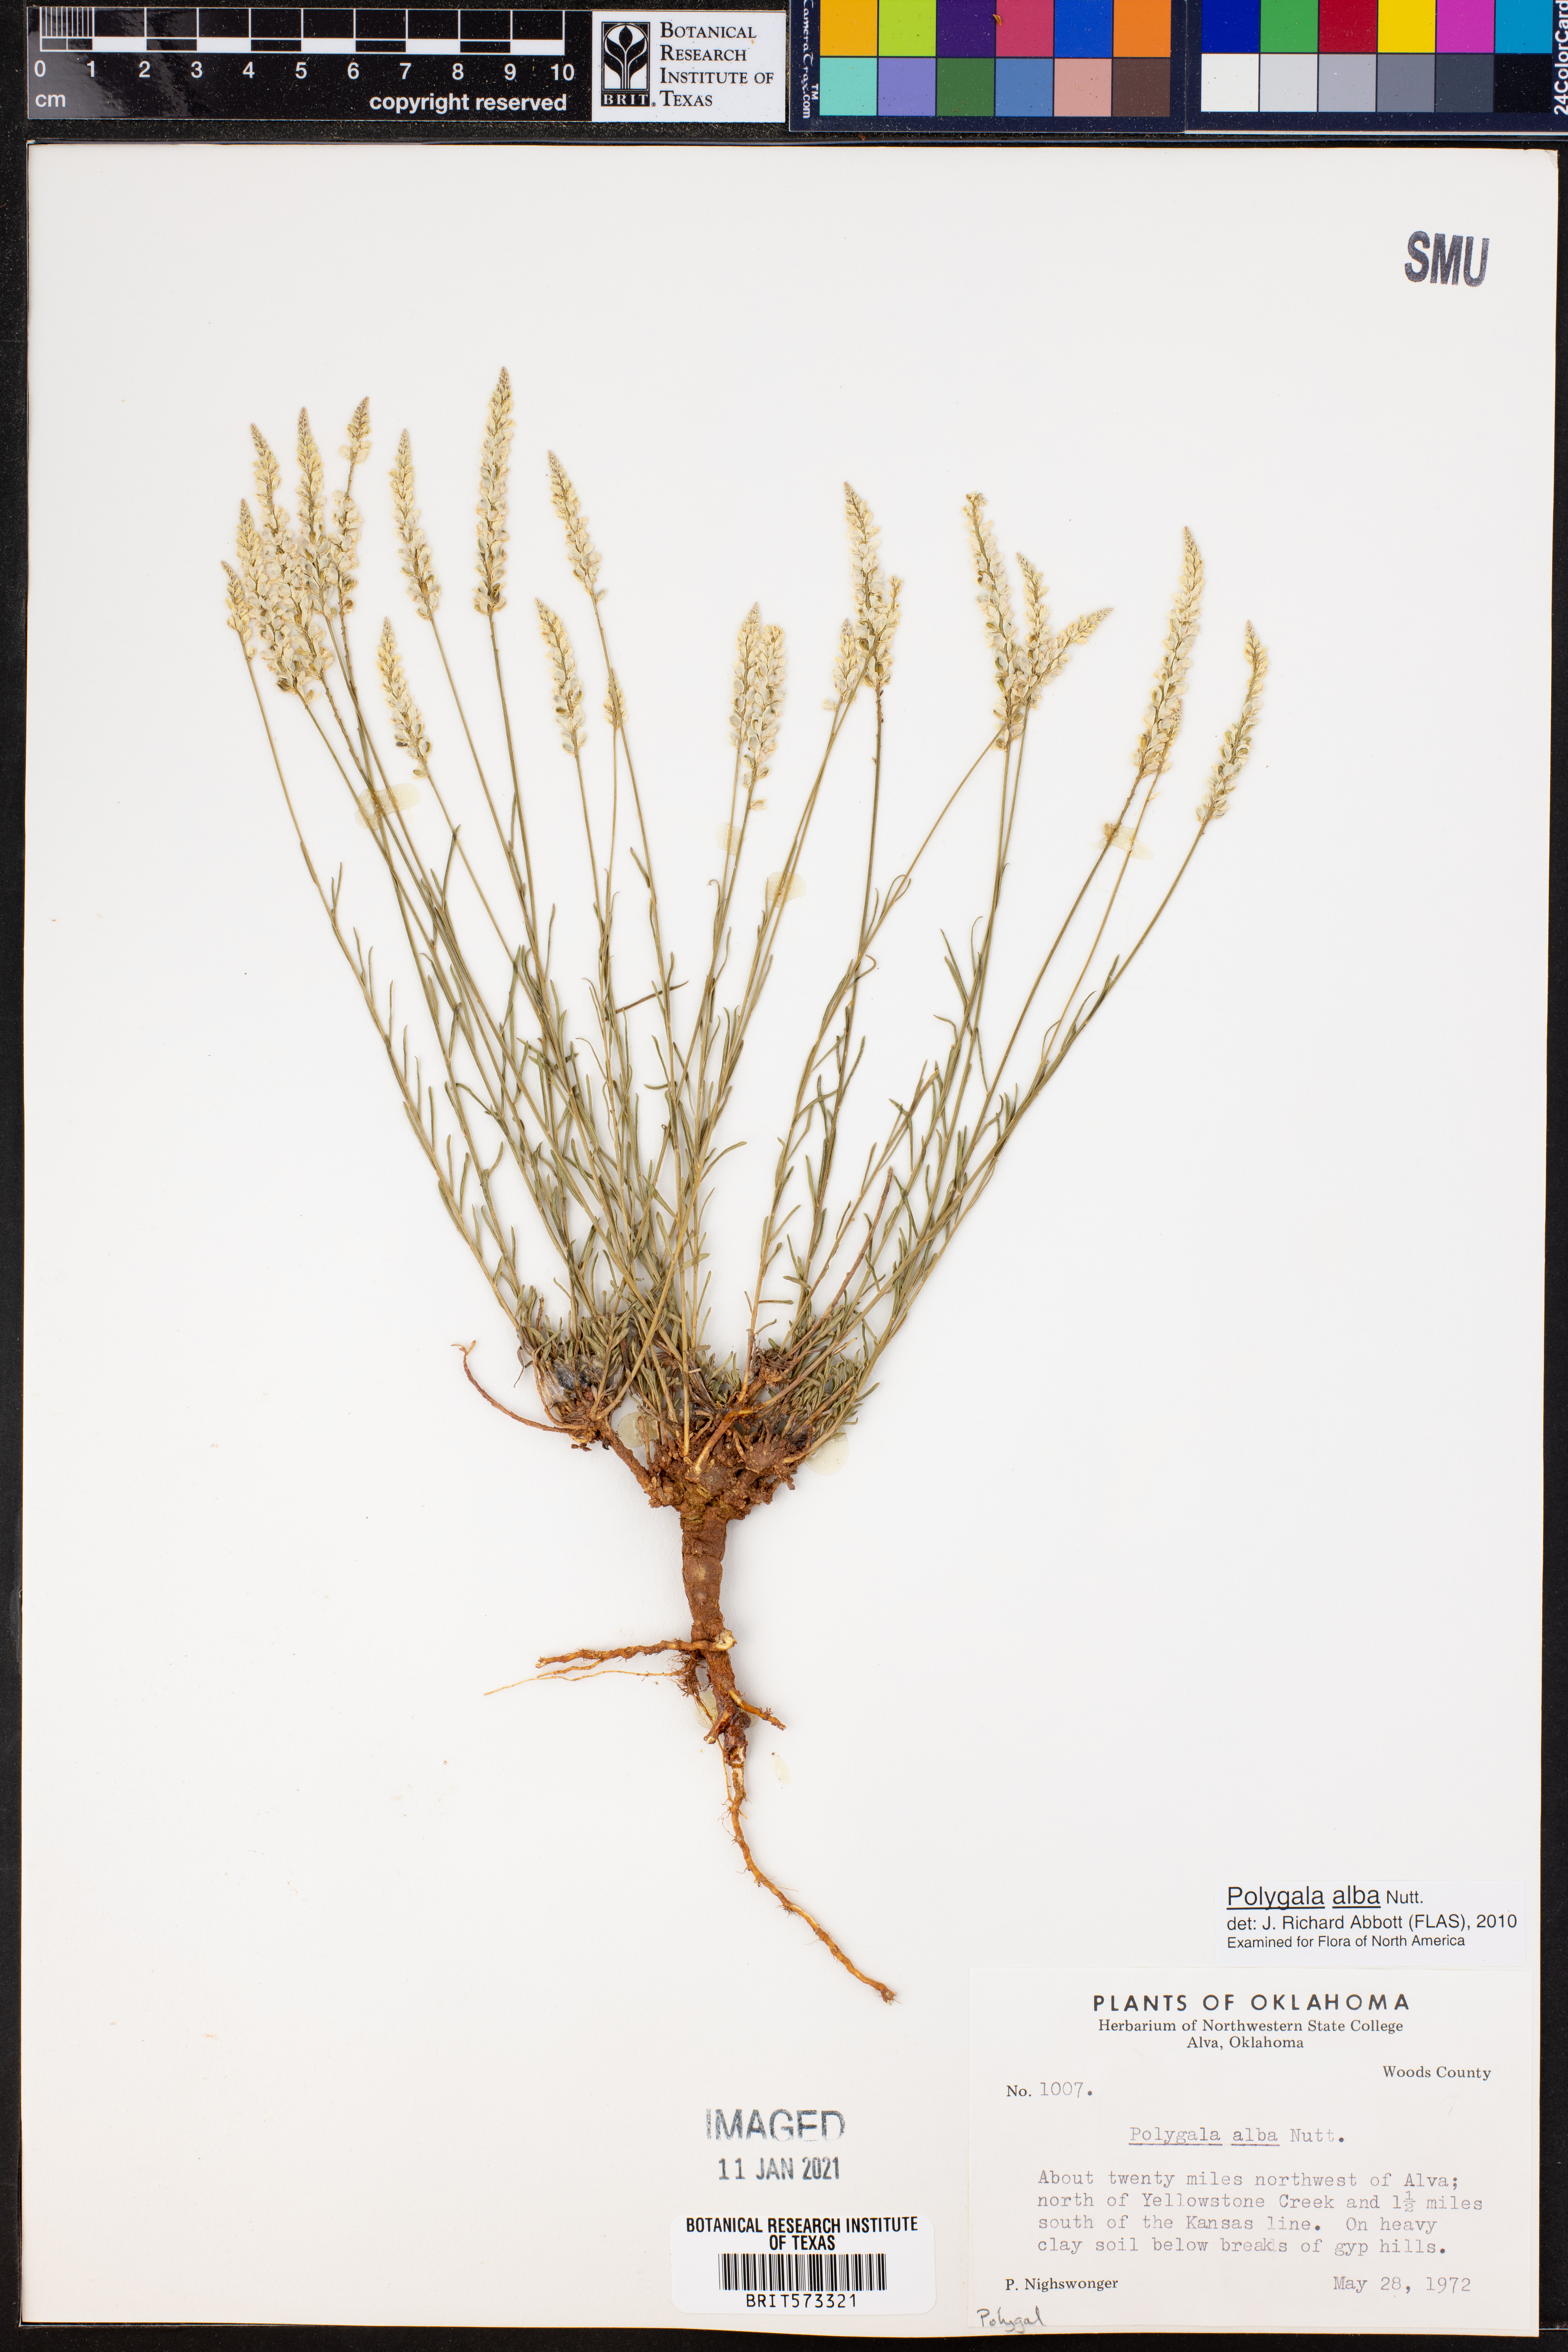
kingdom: Plantae
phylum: Tracheophyta
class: Magnoliopsida
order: Fabales
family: Polygalaceae
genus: Polygala
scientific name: Polygala alba
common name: White milkwort
